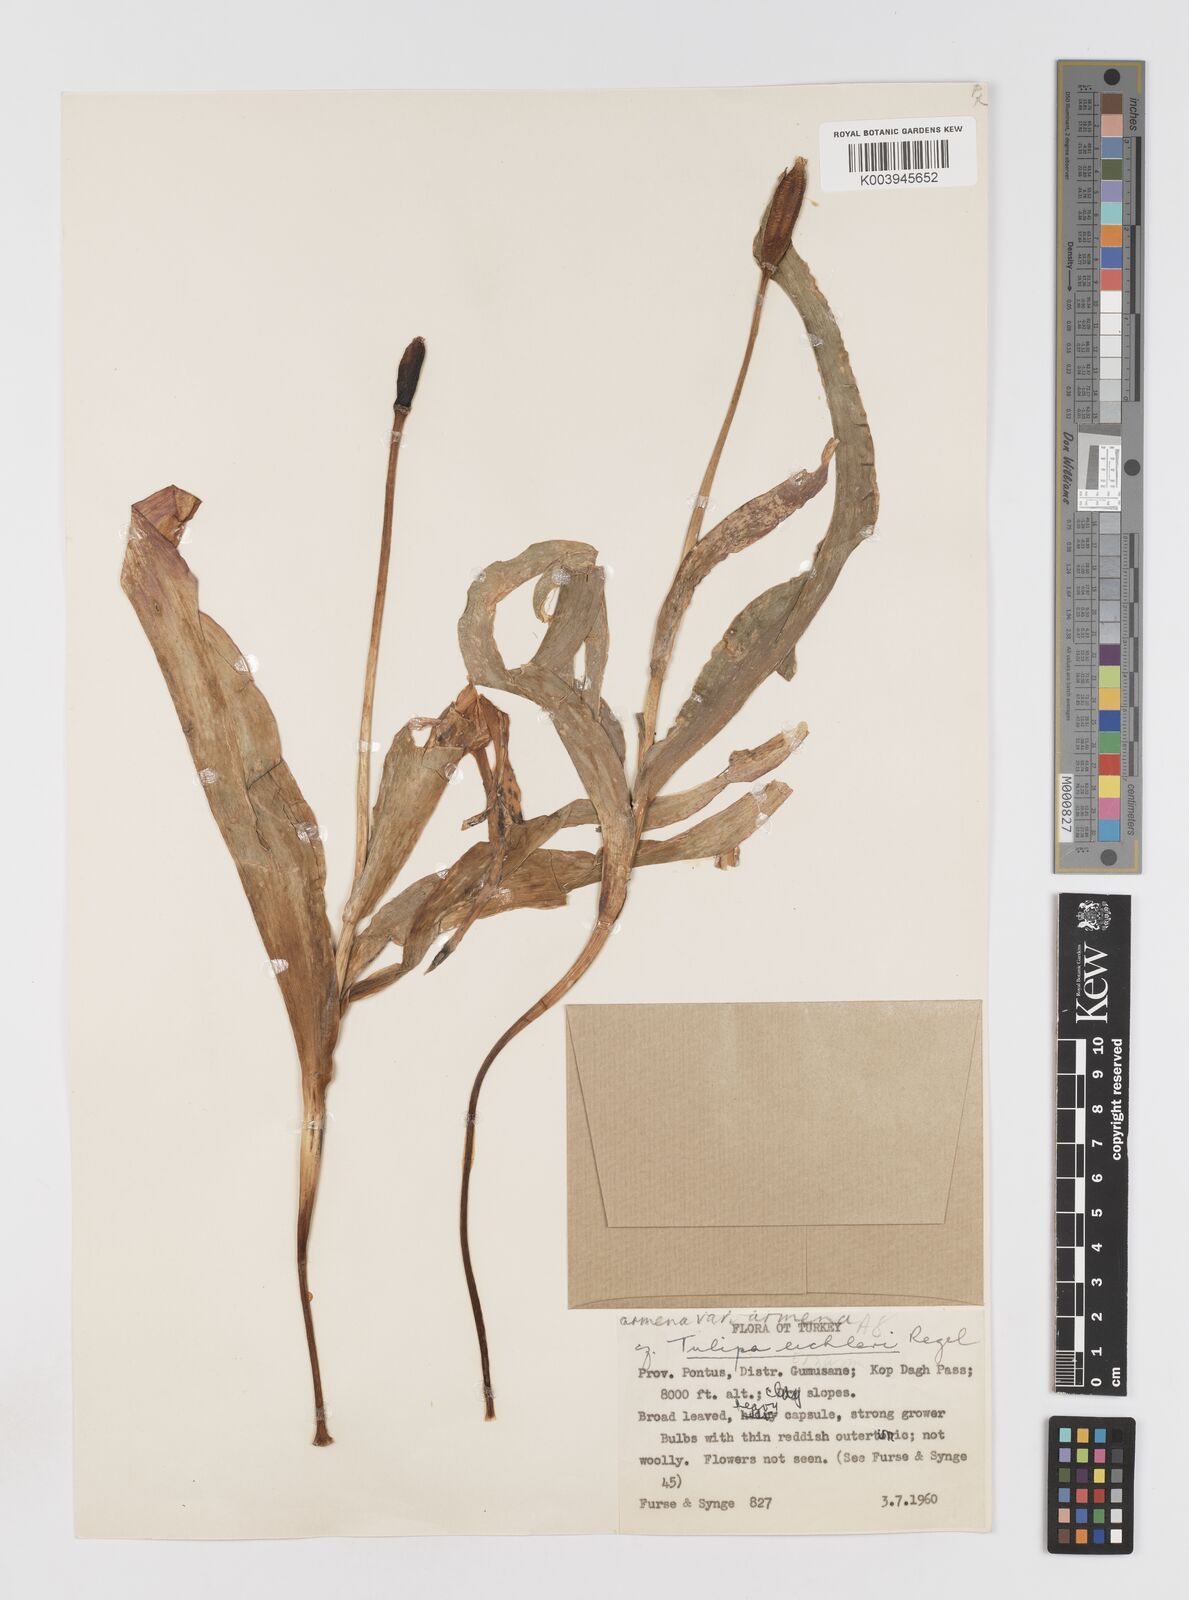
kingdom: Plantae
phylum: Tracheophyta
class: Liliopsida
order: Liliales
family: Liliaceae
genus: Tulipa
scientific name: Tulipa aleppensis
